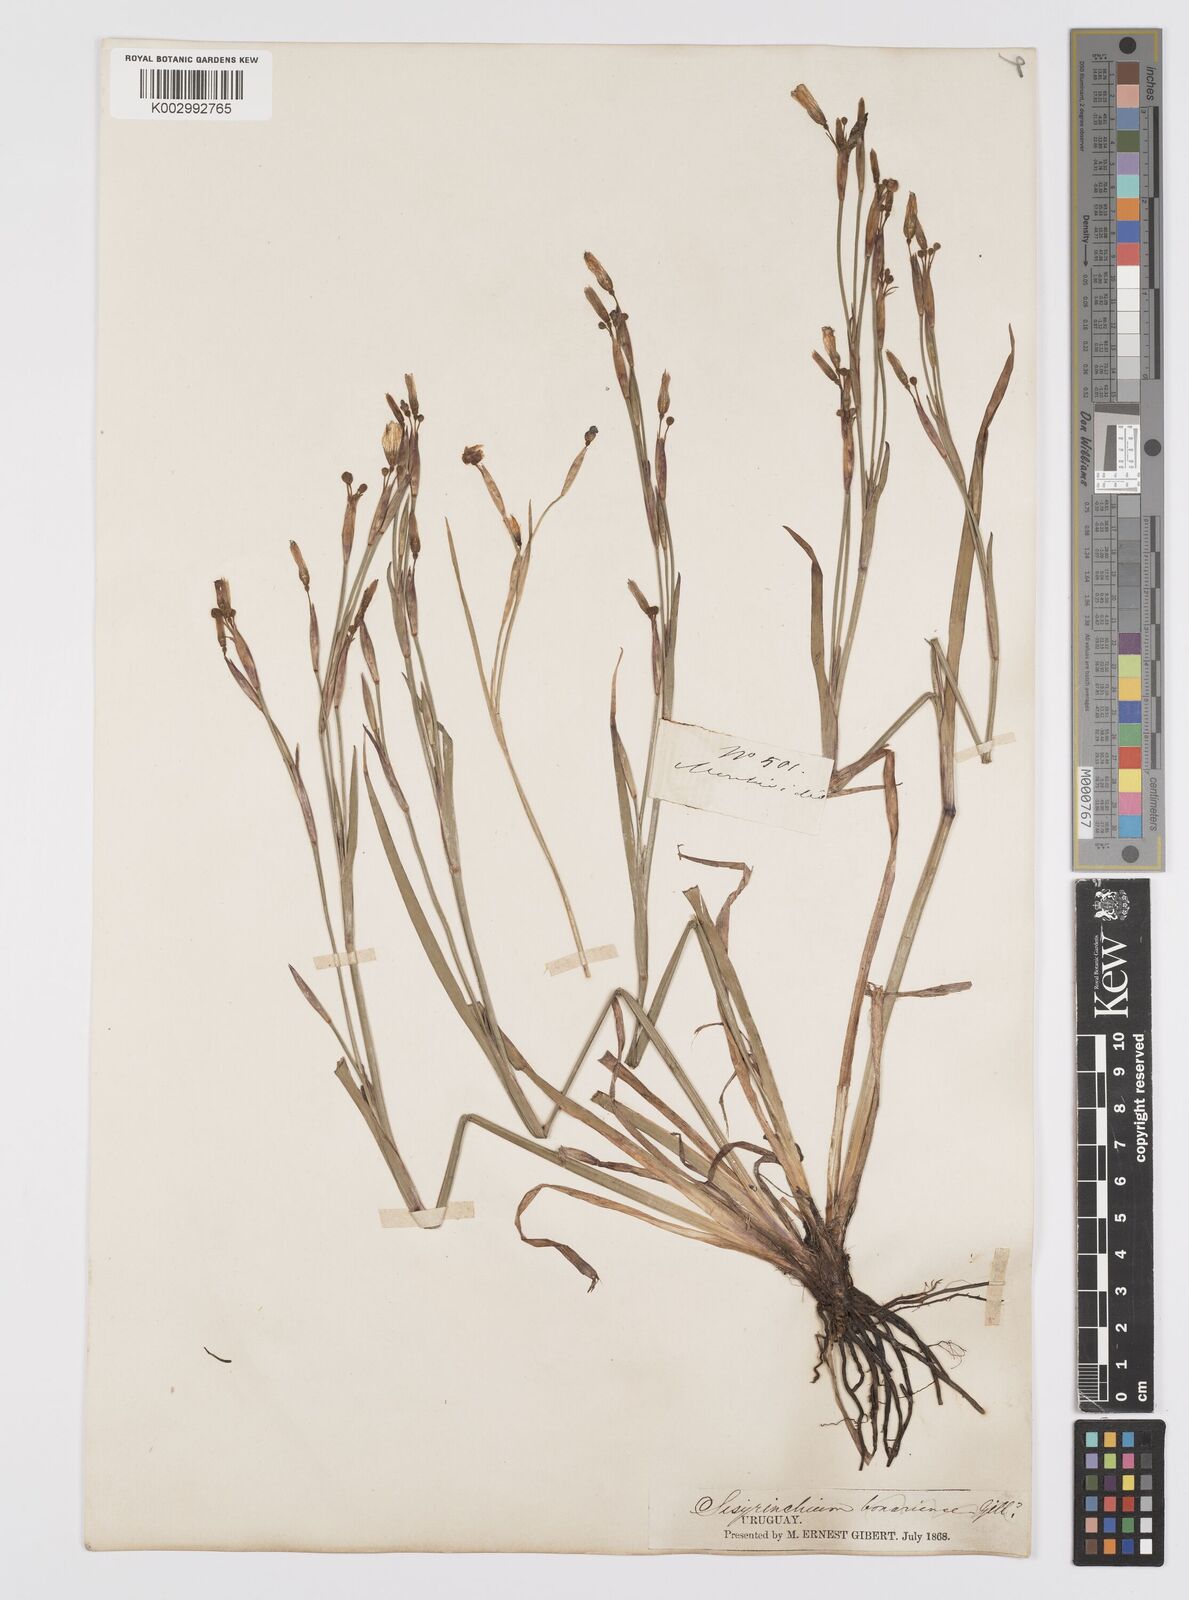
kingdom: Plantae
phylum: Tracheophyta
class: Liliopsida
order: Asparagales
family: Iridaceae
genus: Sisyrinchium
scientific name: Sisyrinchium chilense
